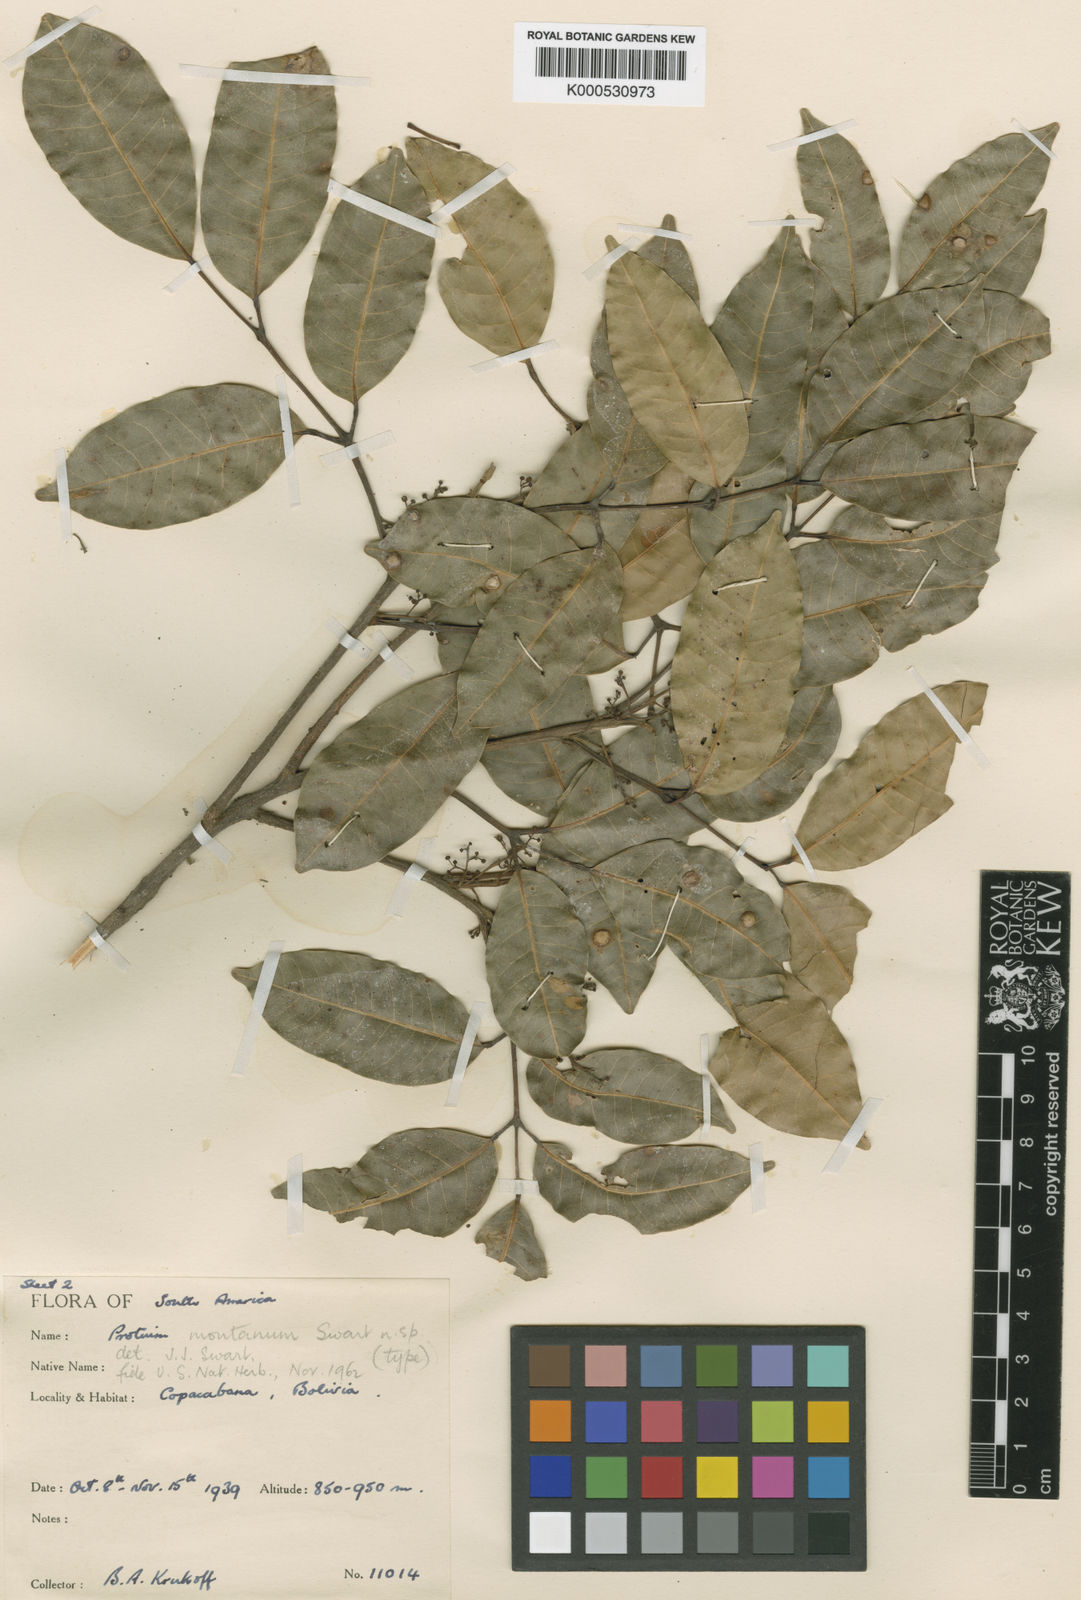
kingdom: Plantae
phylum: Tracheophyta
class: Magnoliopsida
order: Sapindales
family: Burseraceae
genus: Protium
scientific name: Protium montanum
